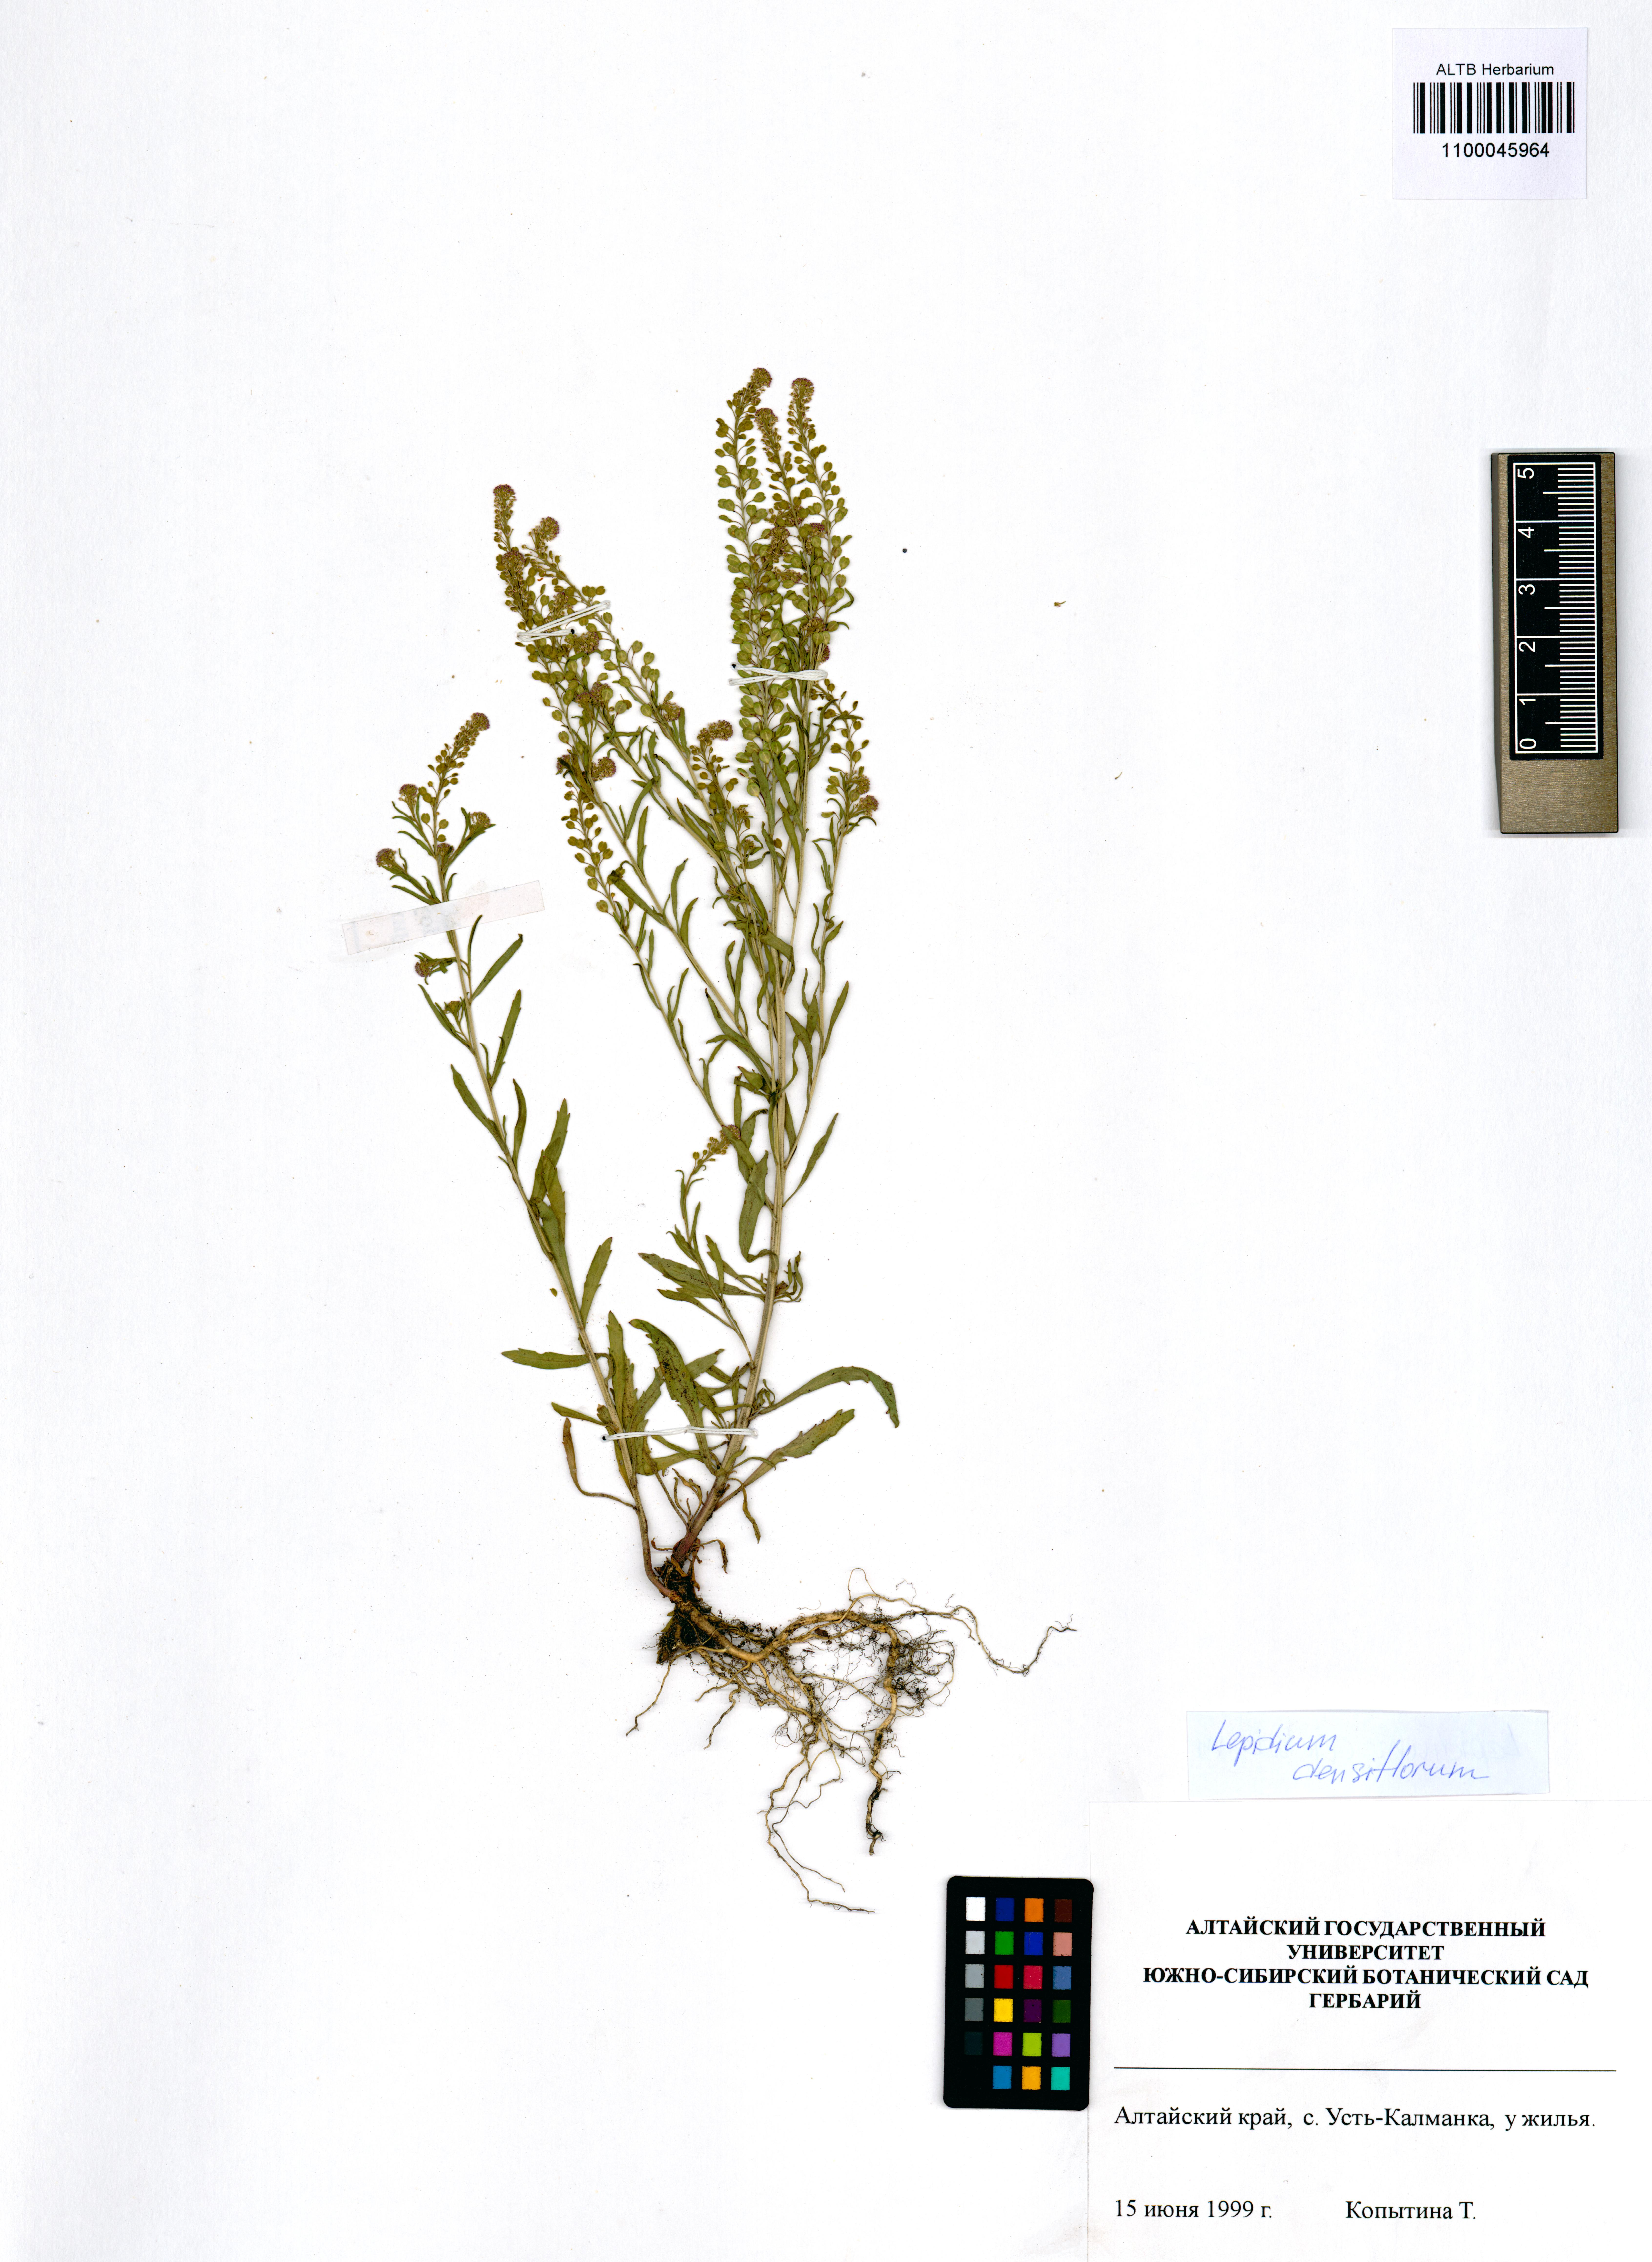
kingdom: Plantae
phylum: Tracheophyta
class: Magnoliopsida
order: Brassicales
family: Brassicaceae
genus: Lepidium
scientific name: Lepidium densiflorum
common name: Miner's pepperwort
